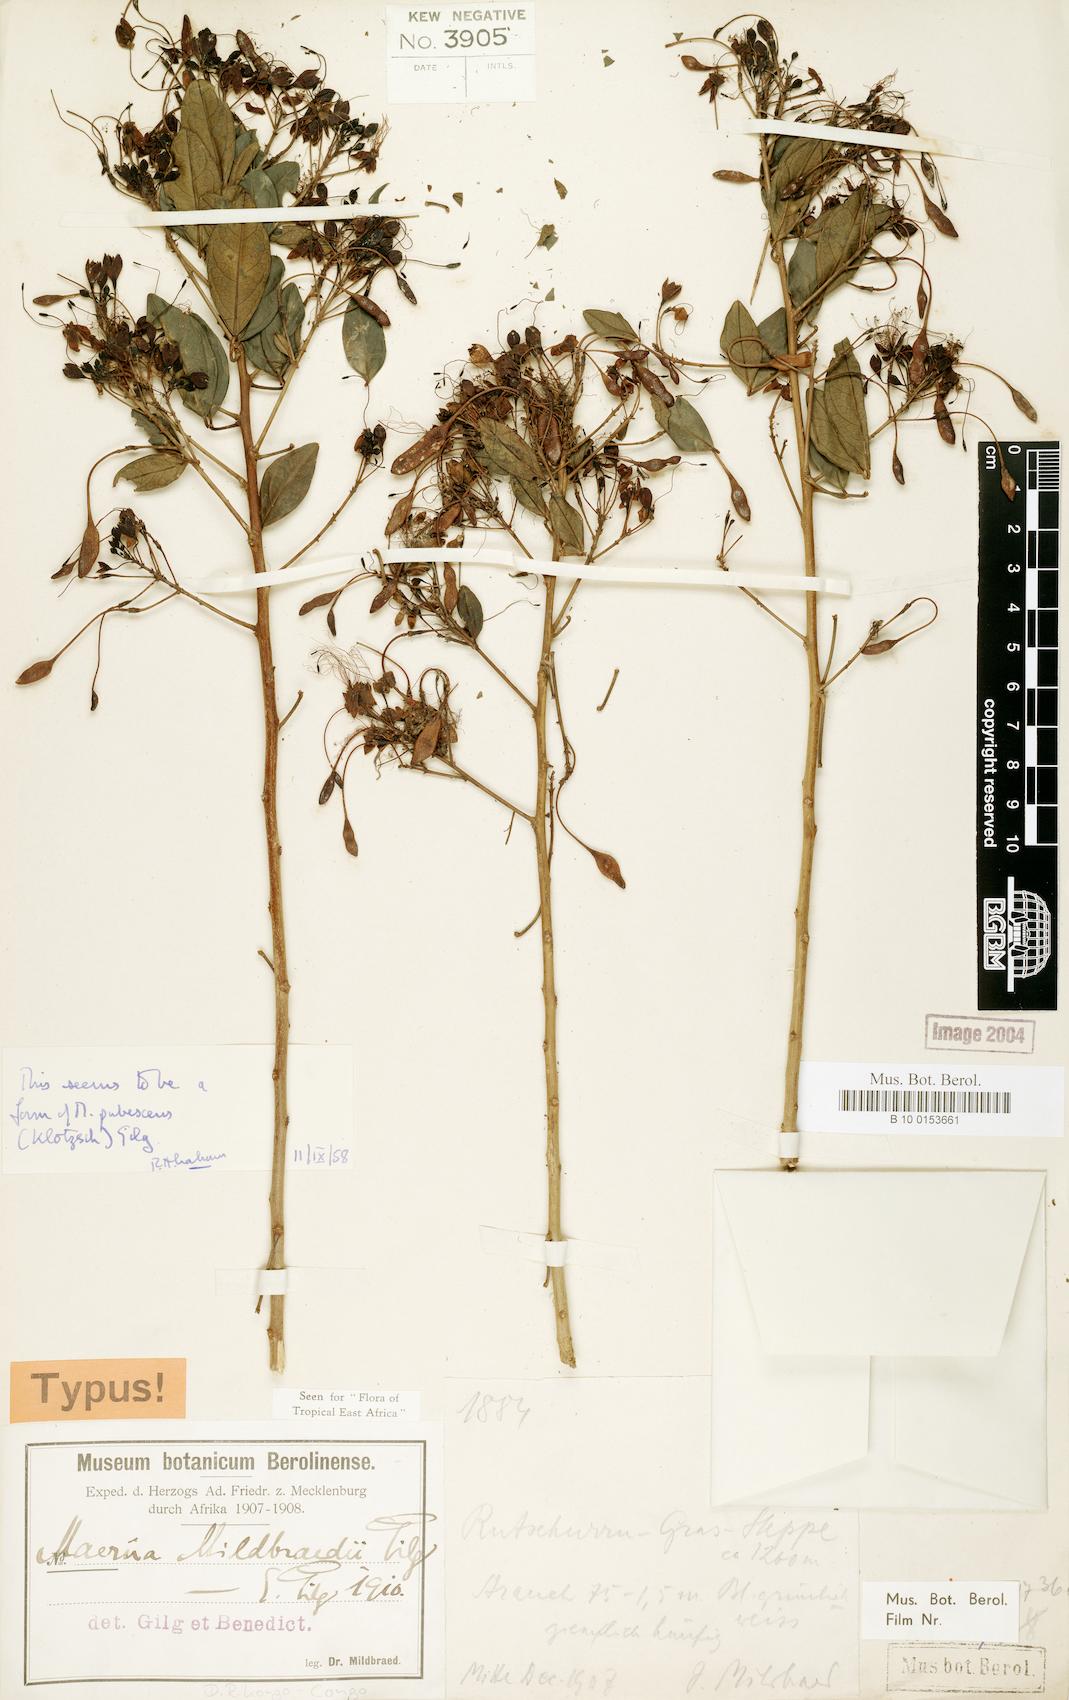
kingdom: Plantae
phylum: Tracheophyta
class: Magnoliopsida
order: Brassicales
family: Capparaceae
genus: Maerua
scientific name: Maerua triphylla
